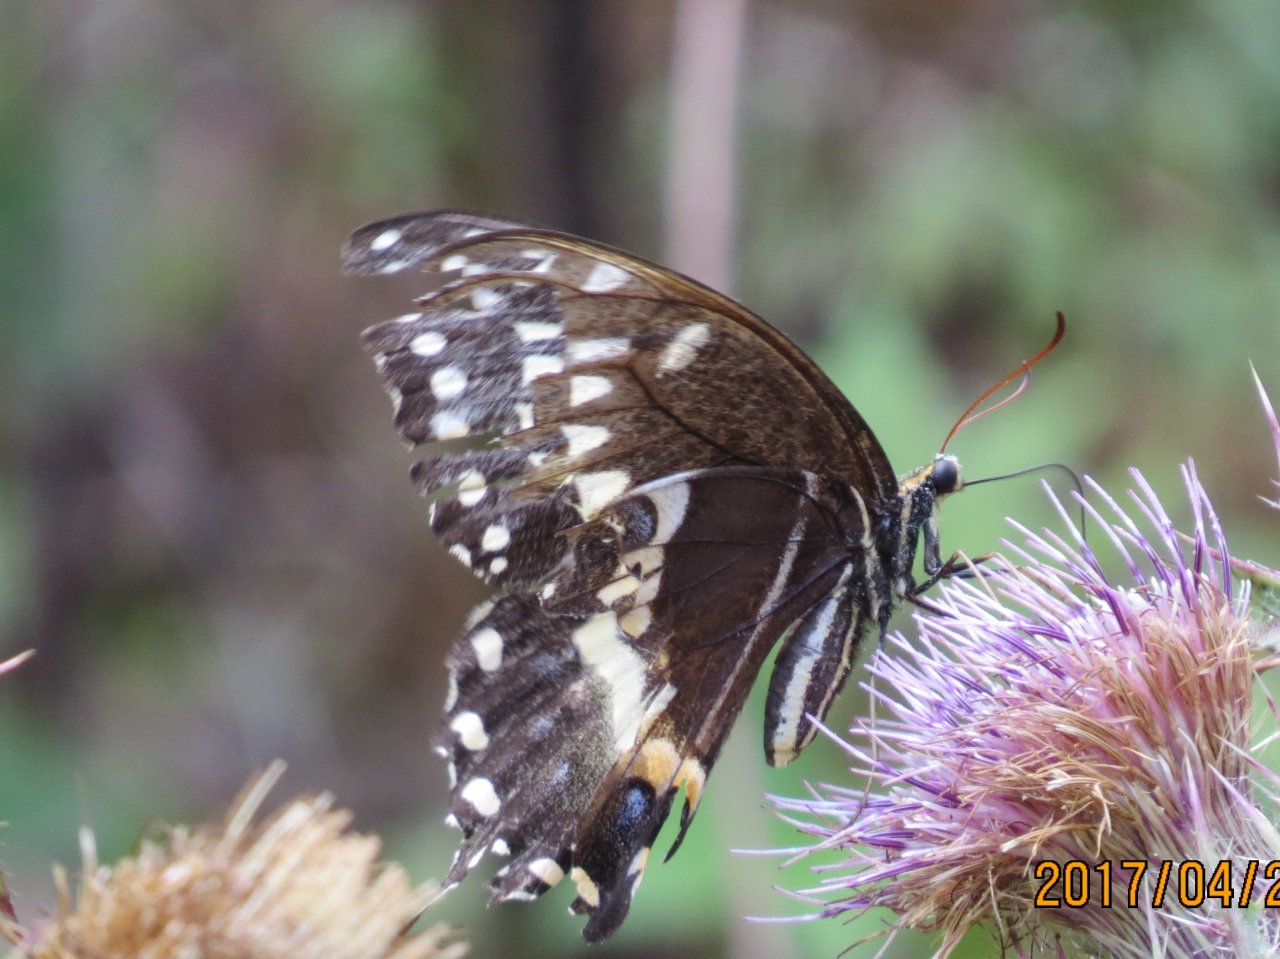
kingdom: Animalia
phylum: Arthropoda
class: Insecta
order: Lepidoptera
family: Papilionidae
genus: Pterourus
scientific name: Pterourus palamedes
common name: Palamedes Swallowtail
